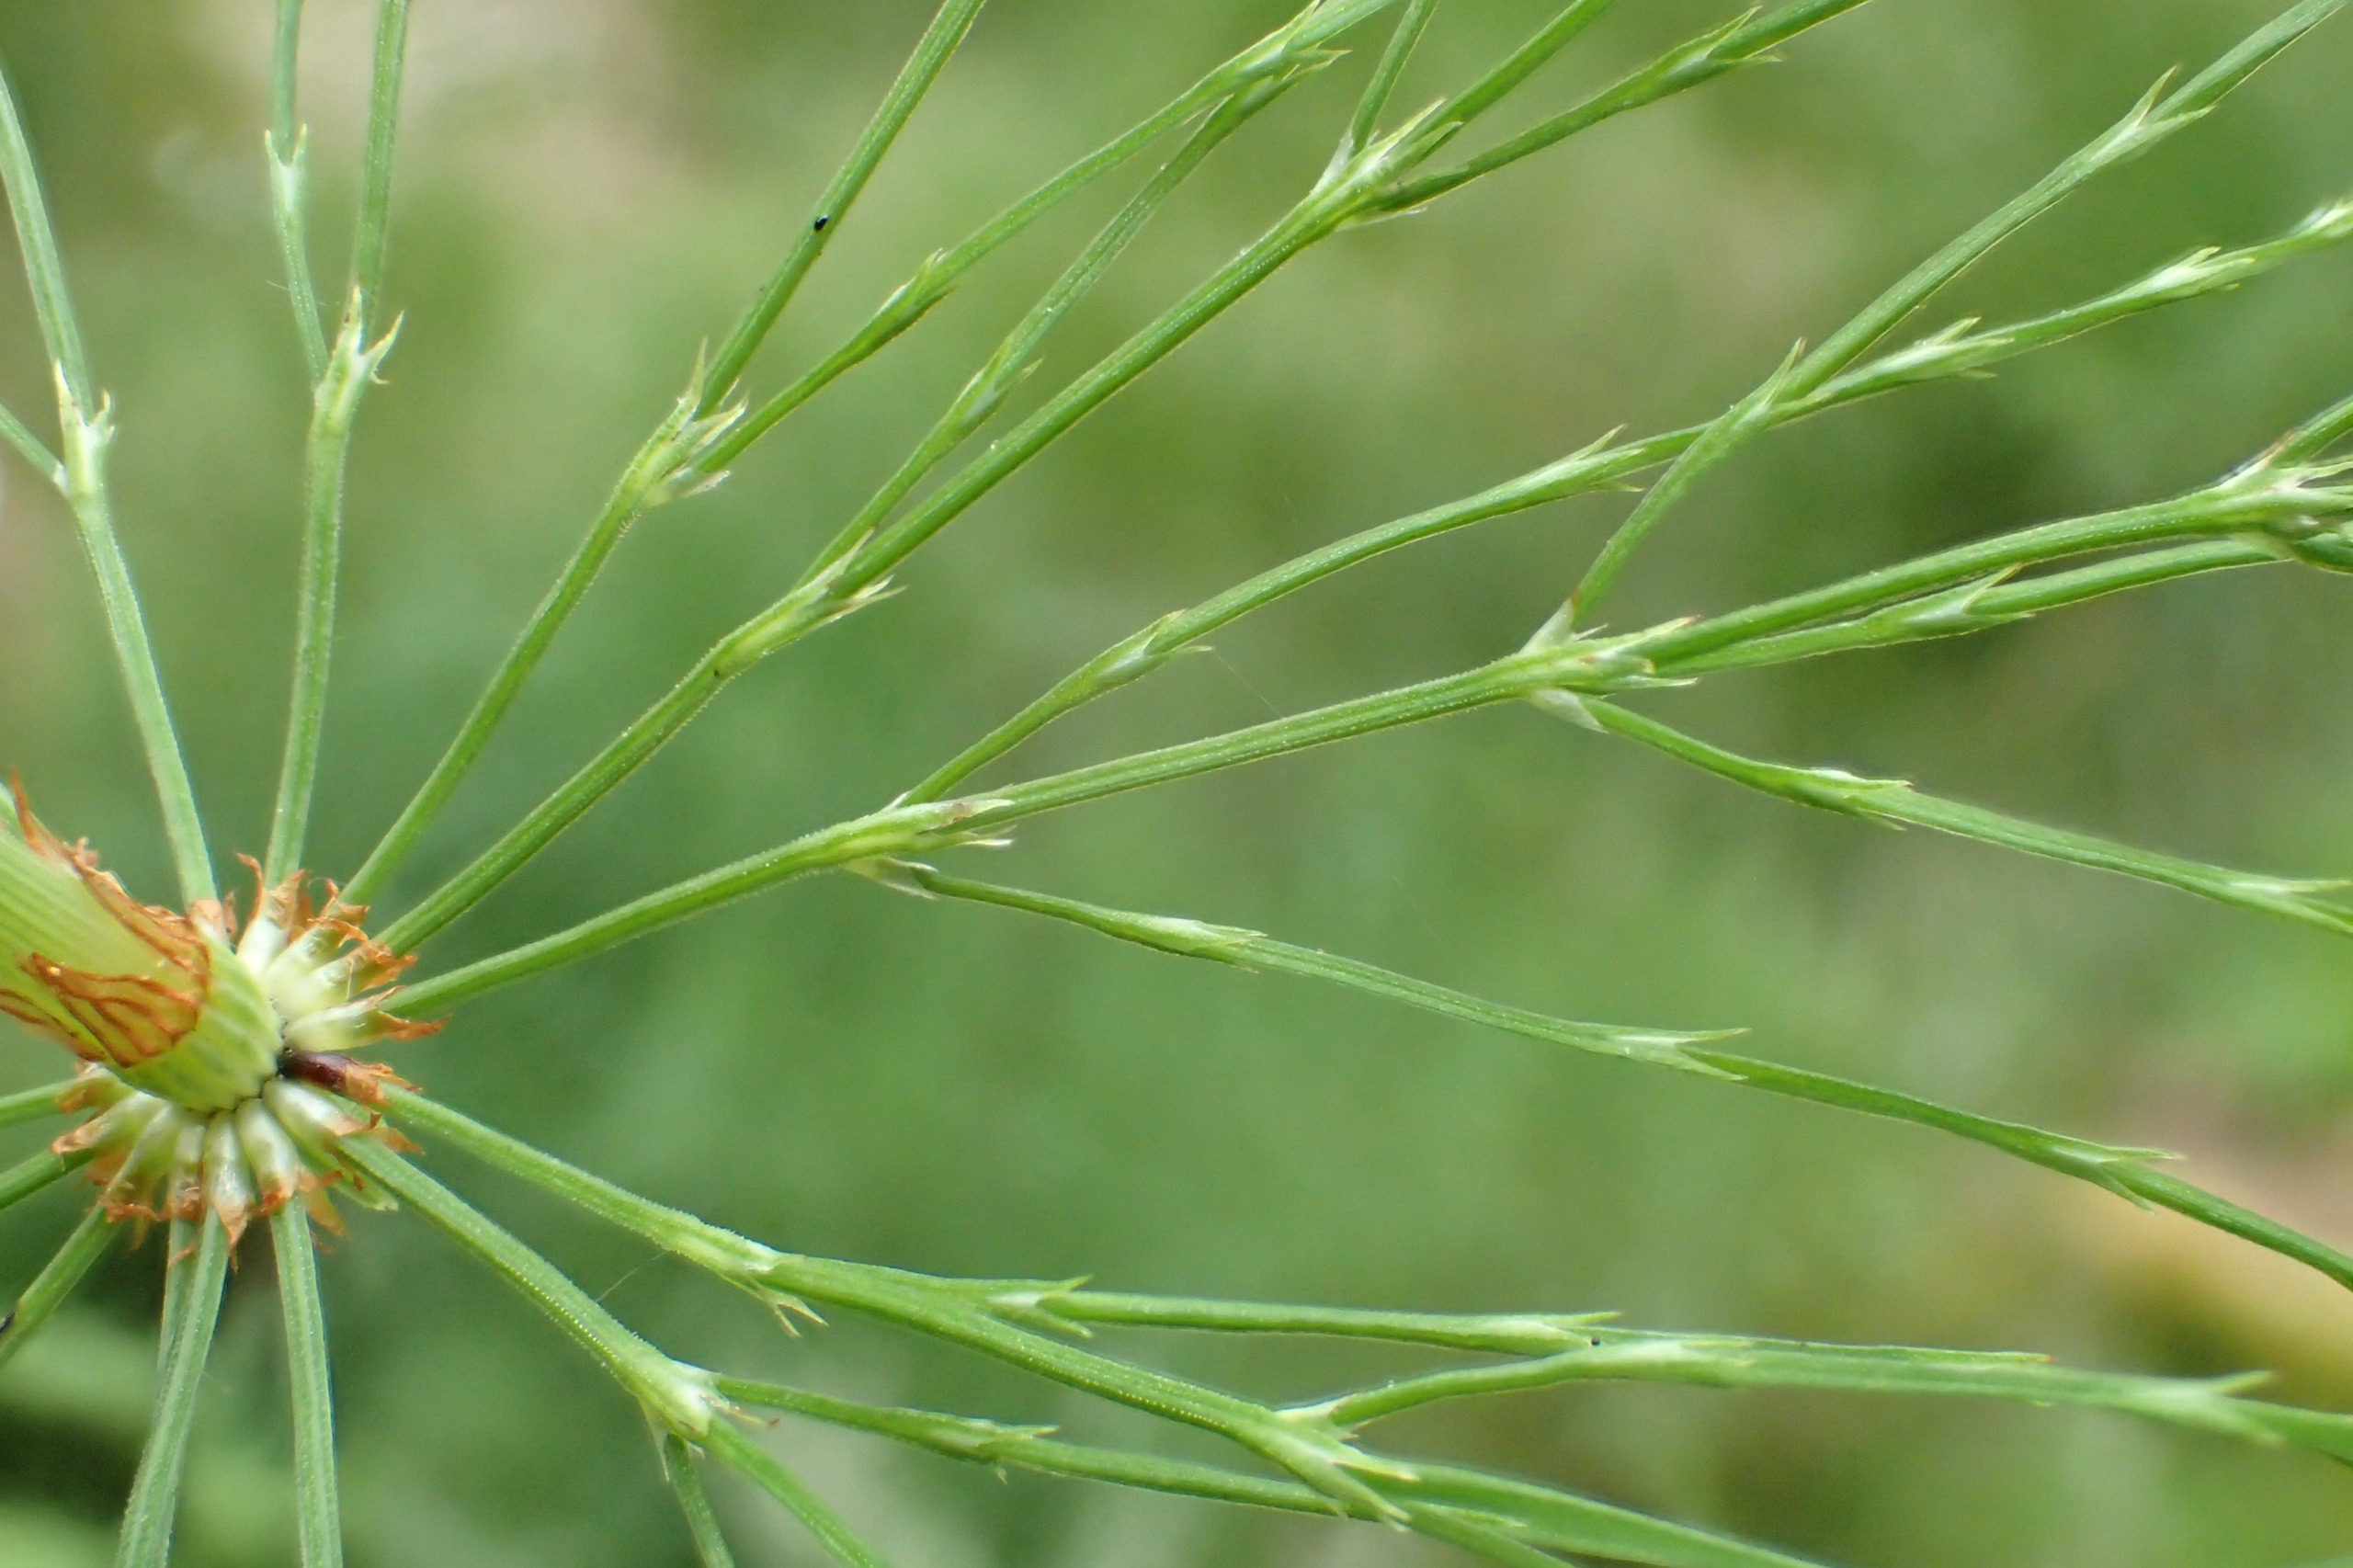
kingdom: Plantae
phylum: Tracheophyta
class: Polypodiopsida
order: Equisetales
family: Equisetaceae
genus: Equisetum
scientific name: Equisetum sylvaticum
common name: Skov-padderok
